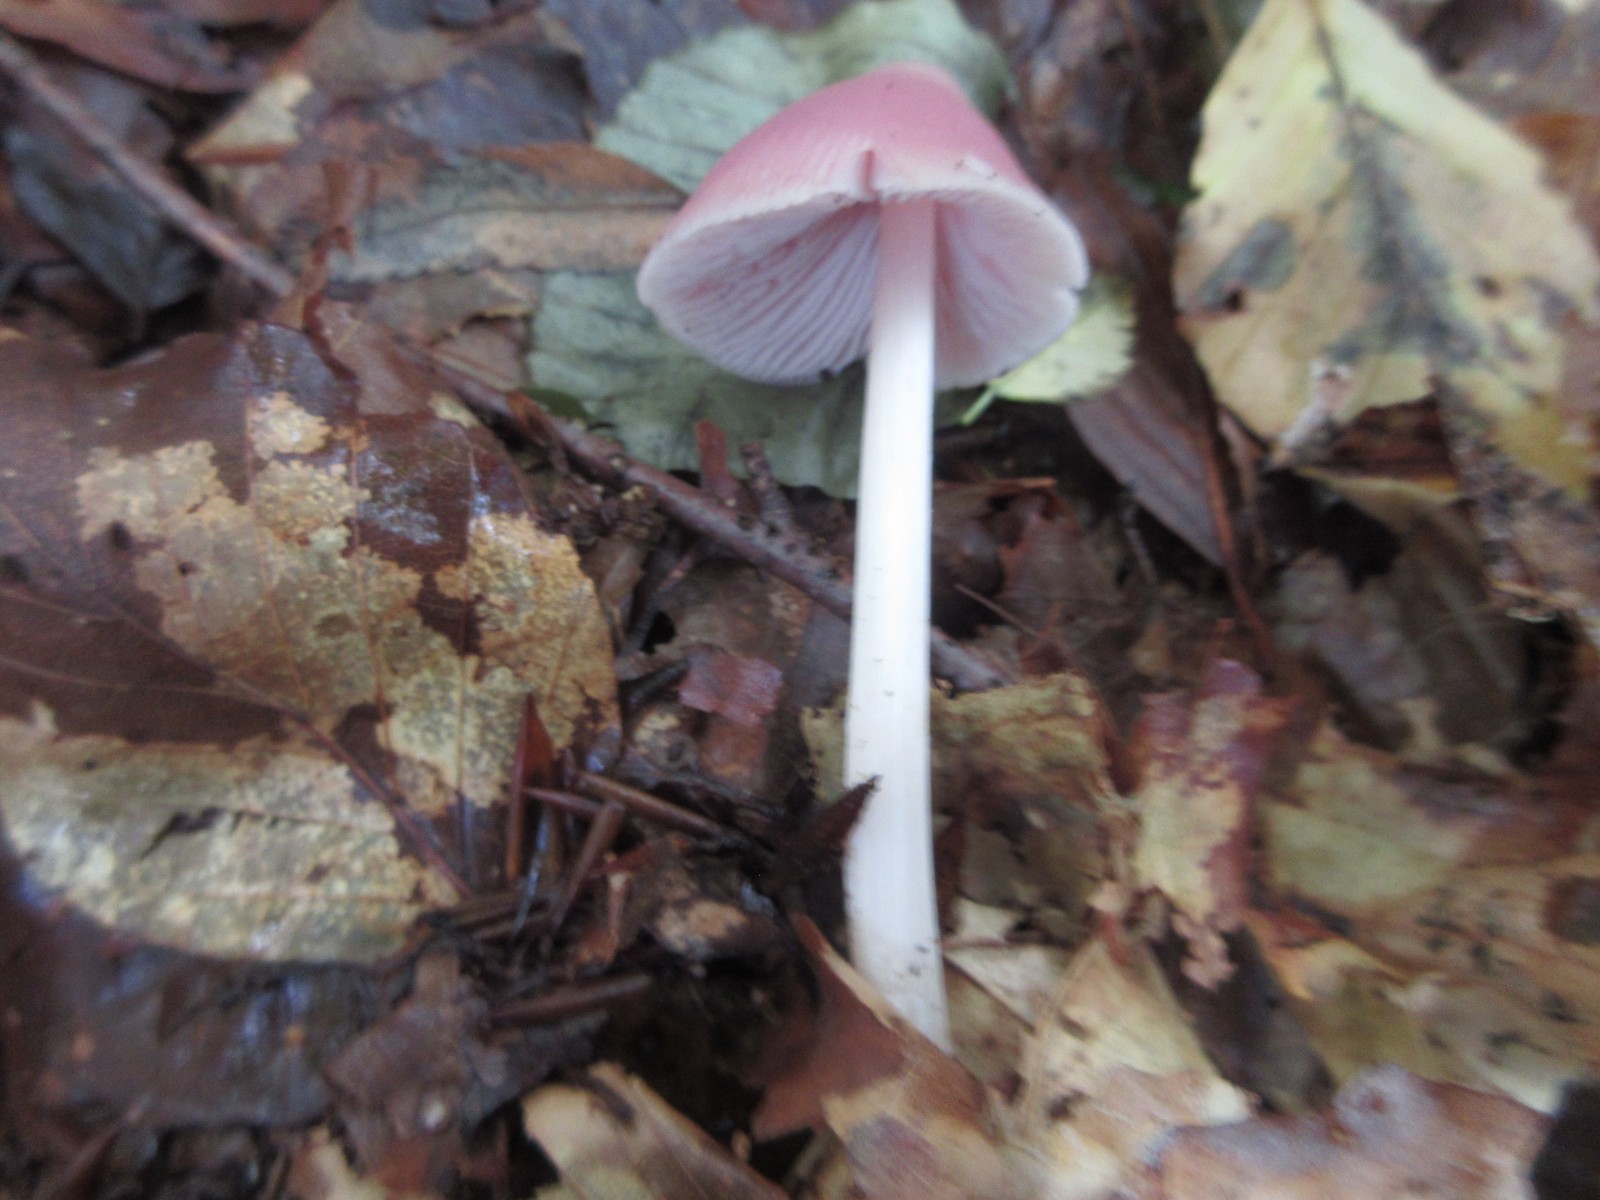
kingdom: Fungi
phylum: Basidiomycota
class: Agaricomycetes
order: Agaricales
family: Mycenaceae
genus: Mycena
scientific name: Mycena rosea
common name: rosa huesvamp
